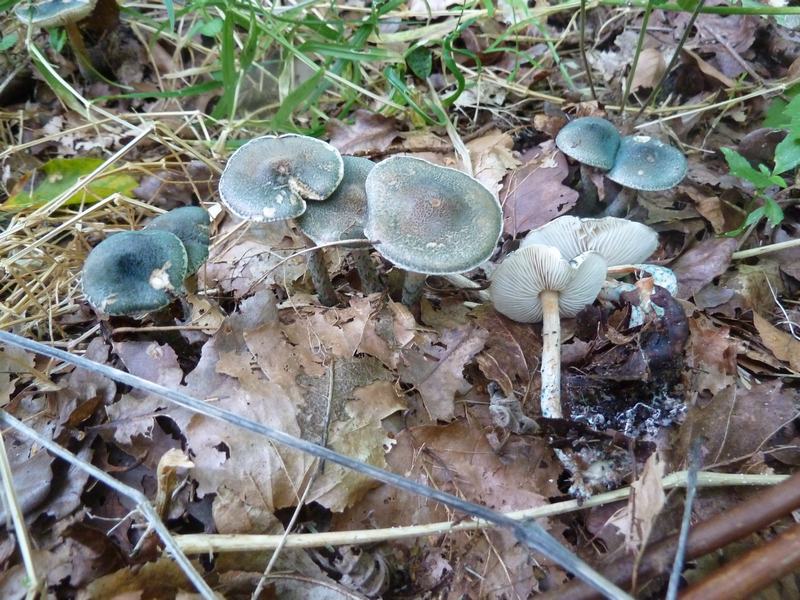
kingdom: Fungi
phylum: Basidiomycota
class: Agaricomycetes
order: Agaricales
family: Agaricaceae
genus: Lepiota
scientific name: Lepiota grangei
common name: grønskællet parasolhat
